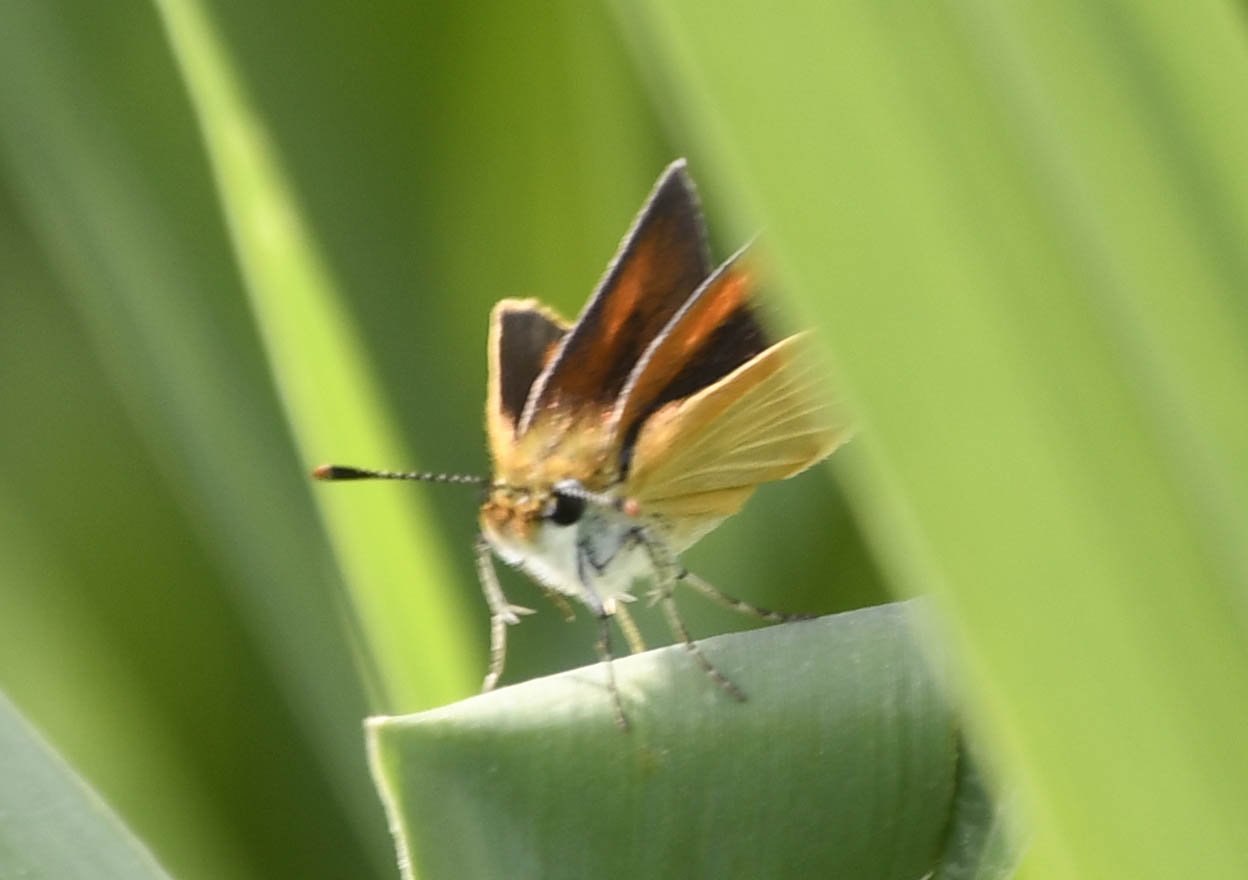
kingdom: Animalia
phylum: Arthropoda
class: Insecta
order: Lepidoptera
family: Hesperiidae
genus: Ancyloxypha
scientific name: Ancyloxypha numitor
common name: Least Skipper
